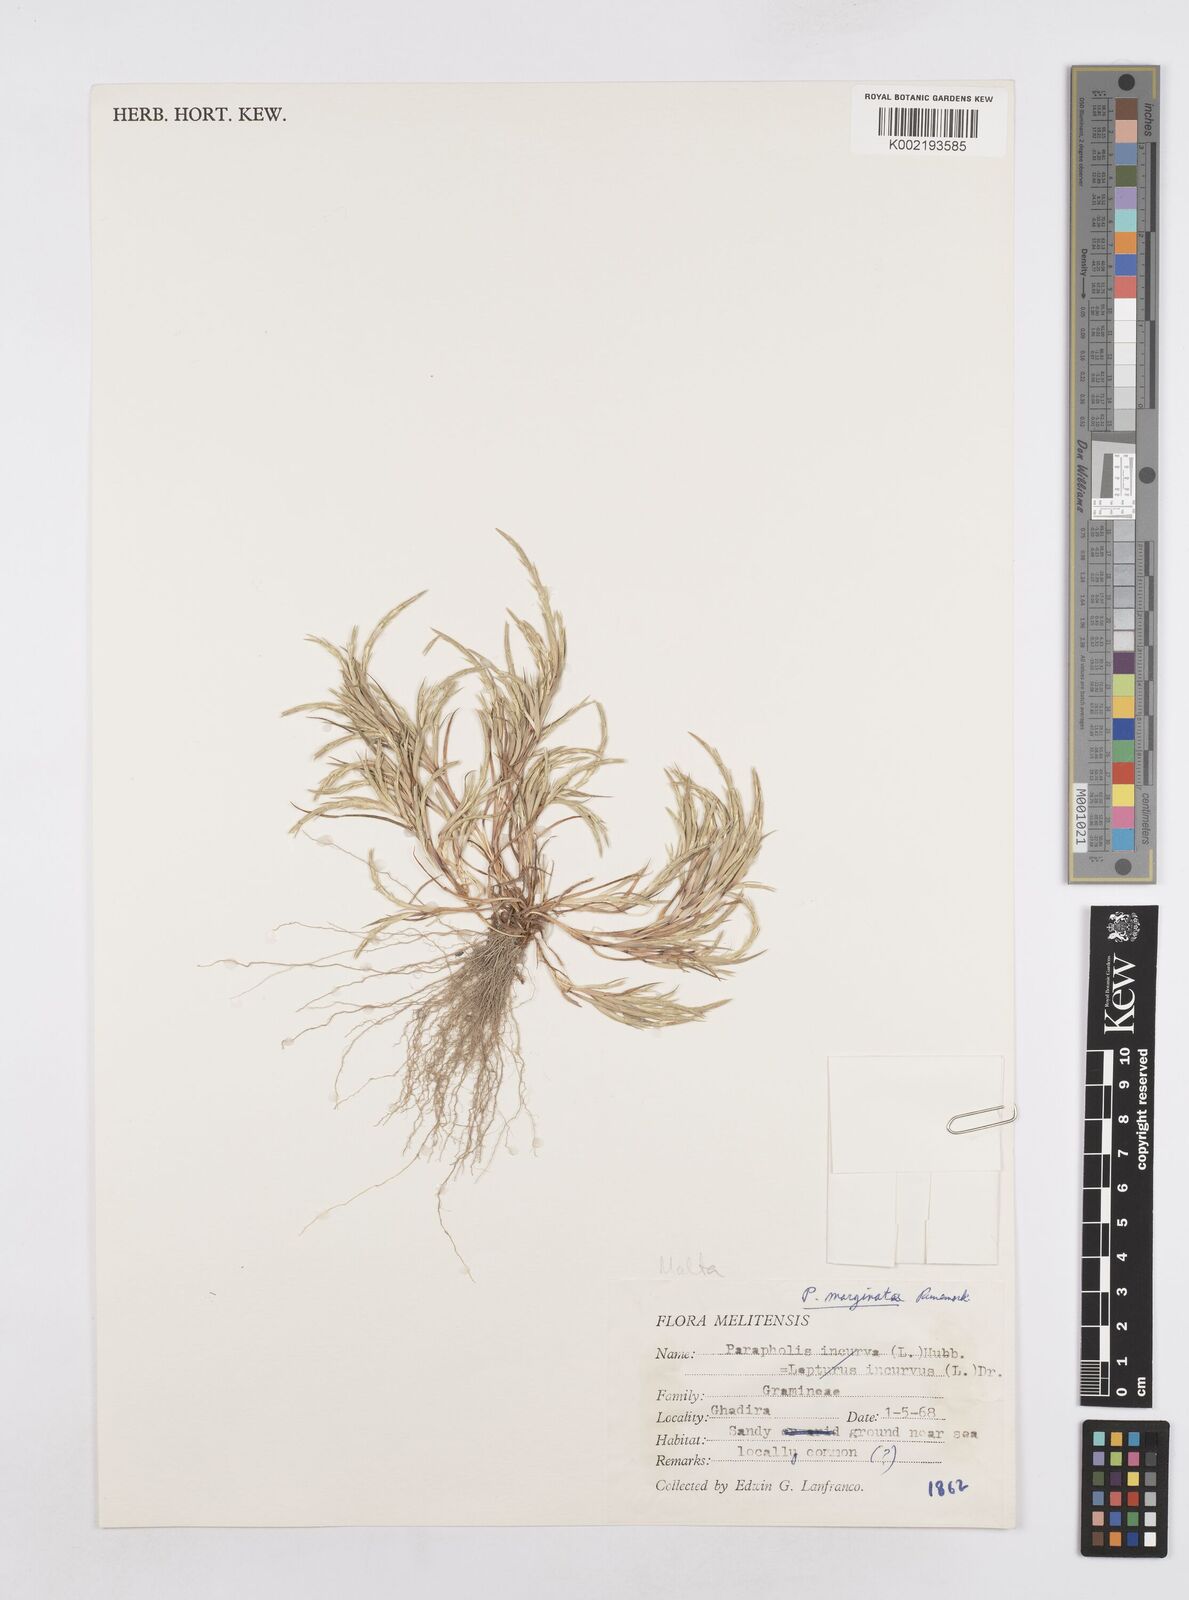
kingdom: Plantae
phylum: Tracheophyta
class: Liliopsida
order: Poales
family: Poaceae
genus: Parapholis
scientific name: Parapholis marginata
